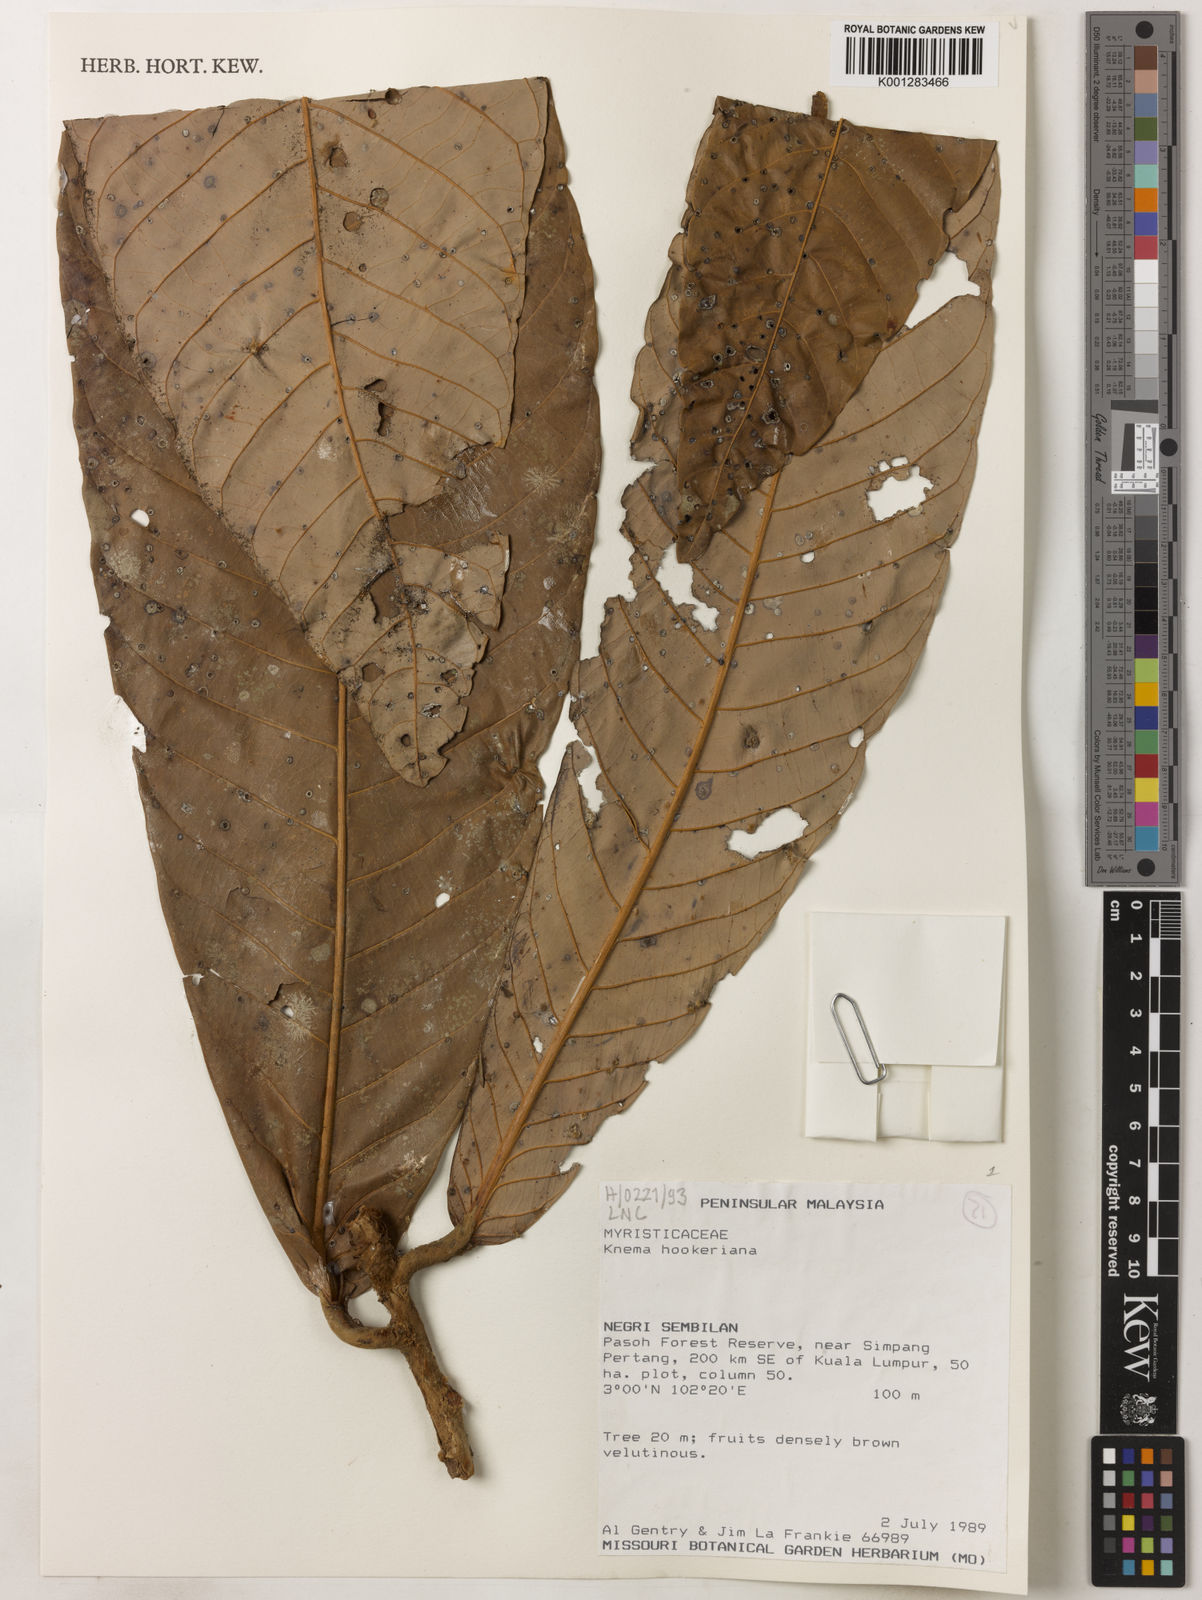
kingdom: Plantae
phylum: Tracheophyta
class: Magnoliopsida
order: Magnoliales
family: Myristicaceae
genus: Knema
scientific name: Knema hookeriana
